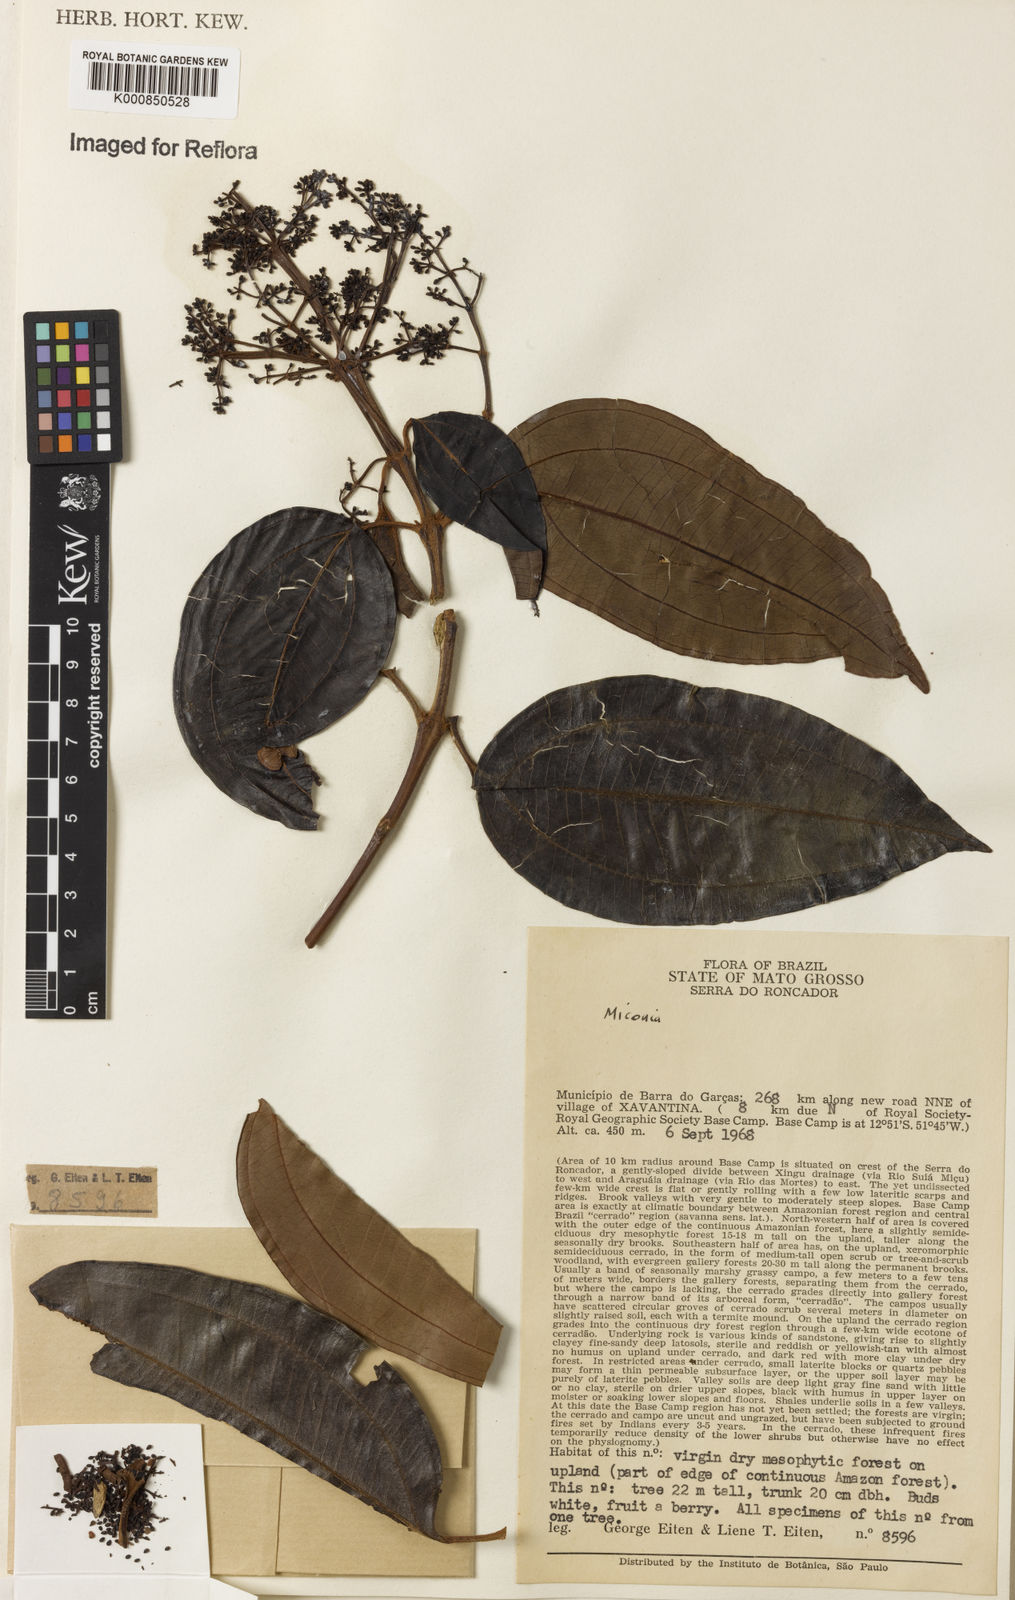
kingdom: Plantae
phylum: Tracheophyta
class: Magnoliopsida
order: Myrtales
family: Melastomataceae
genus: Miconia
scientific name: Miconia
